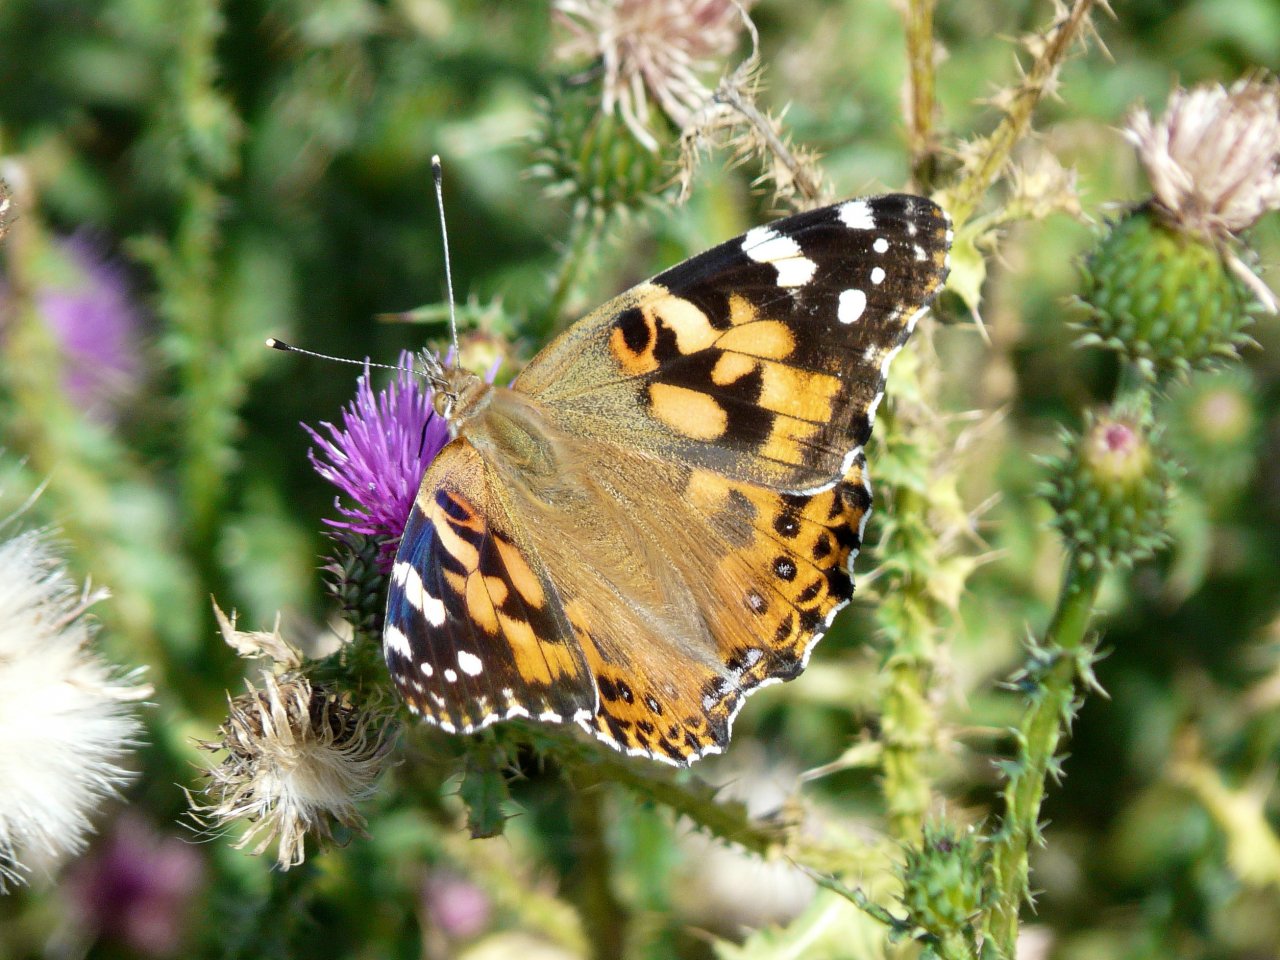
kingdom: Animalia
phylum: Arthropoda
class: Insecta
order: Lepidoptera
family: Nymphalidae
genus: Vanessa
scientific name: Vanessa cardui
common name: Painted Lady
